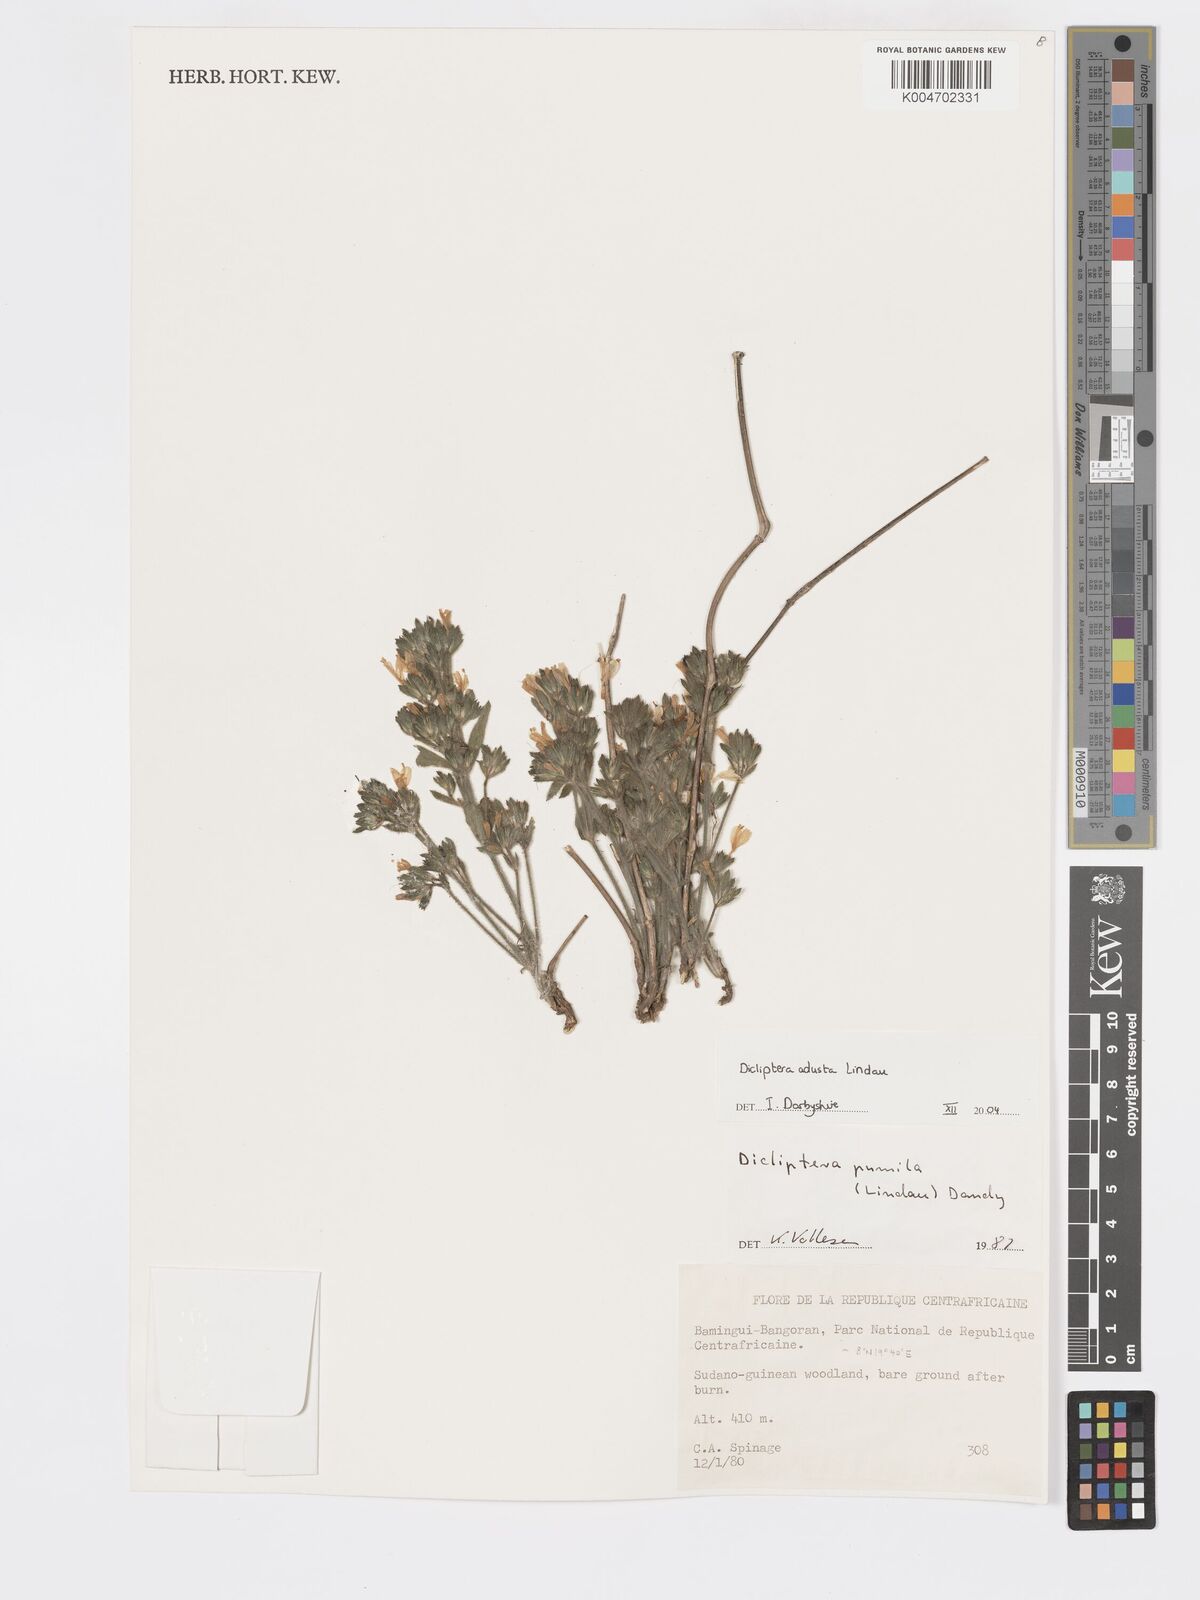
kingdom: Plantae
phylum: Tracheophyta
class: Magnoliopsida
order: Lamiales
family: Acanthaceae
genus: Dicliptera
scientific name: Dicliptera pumila
